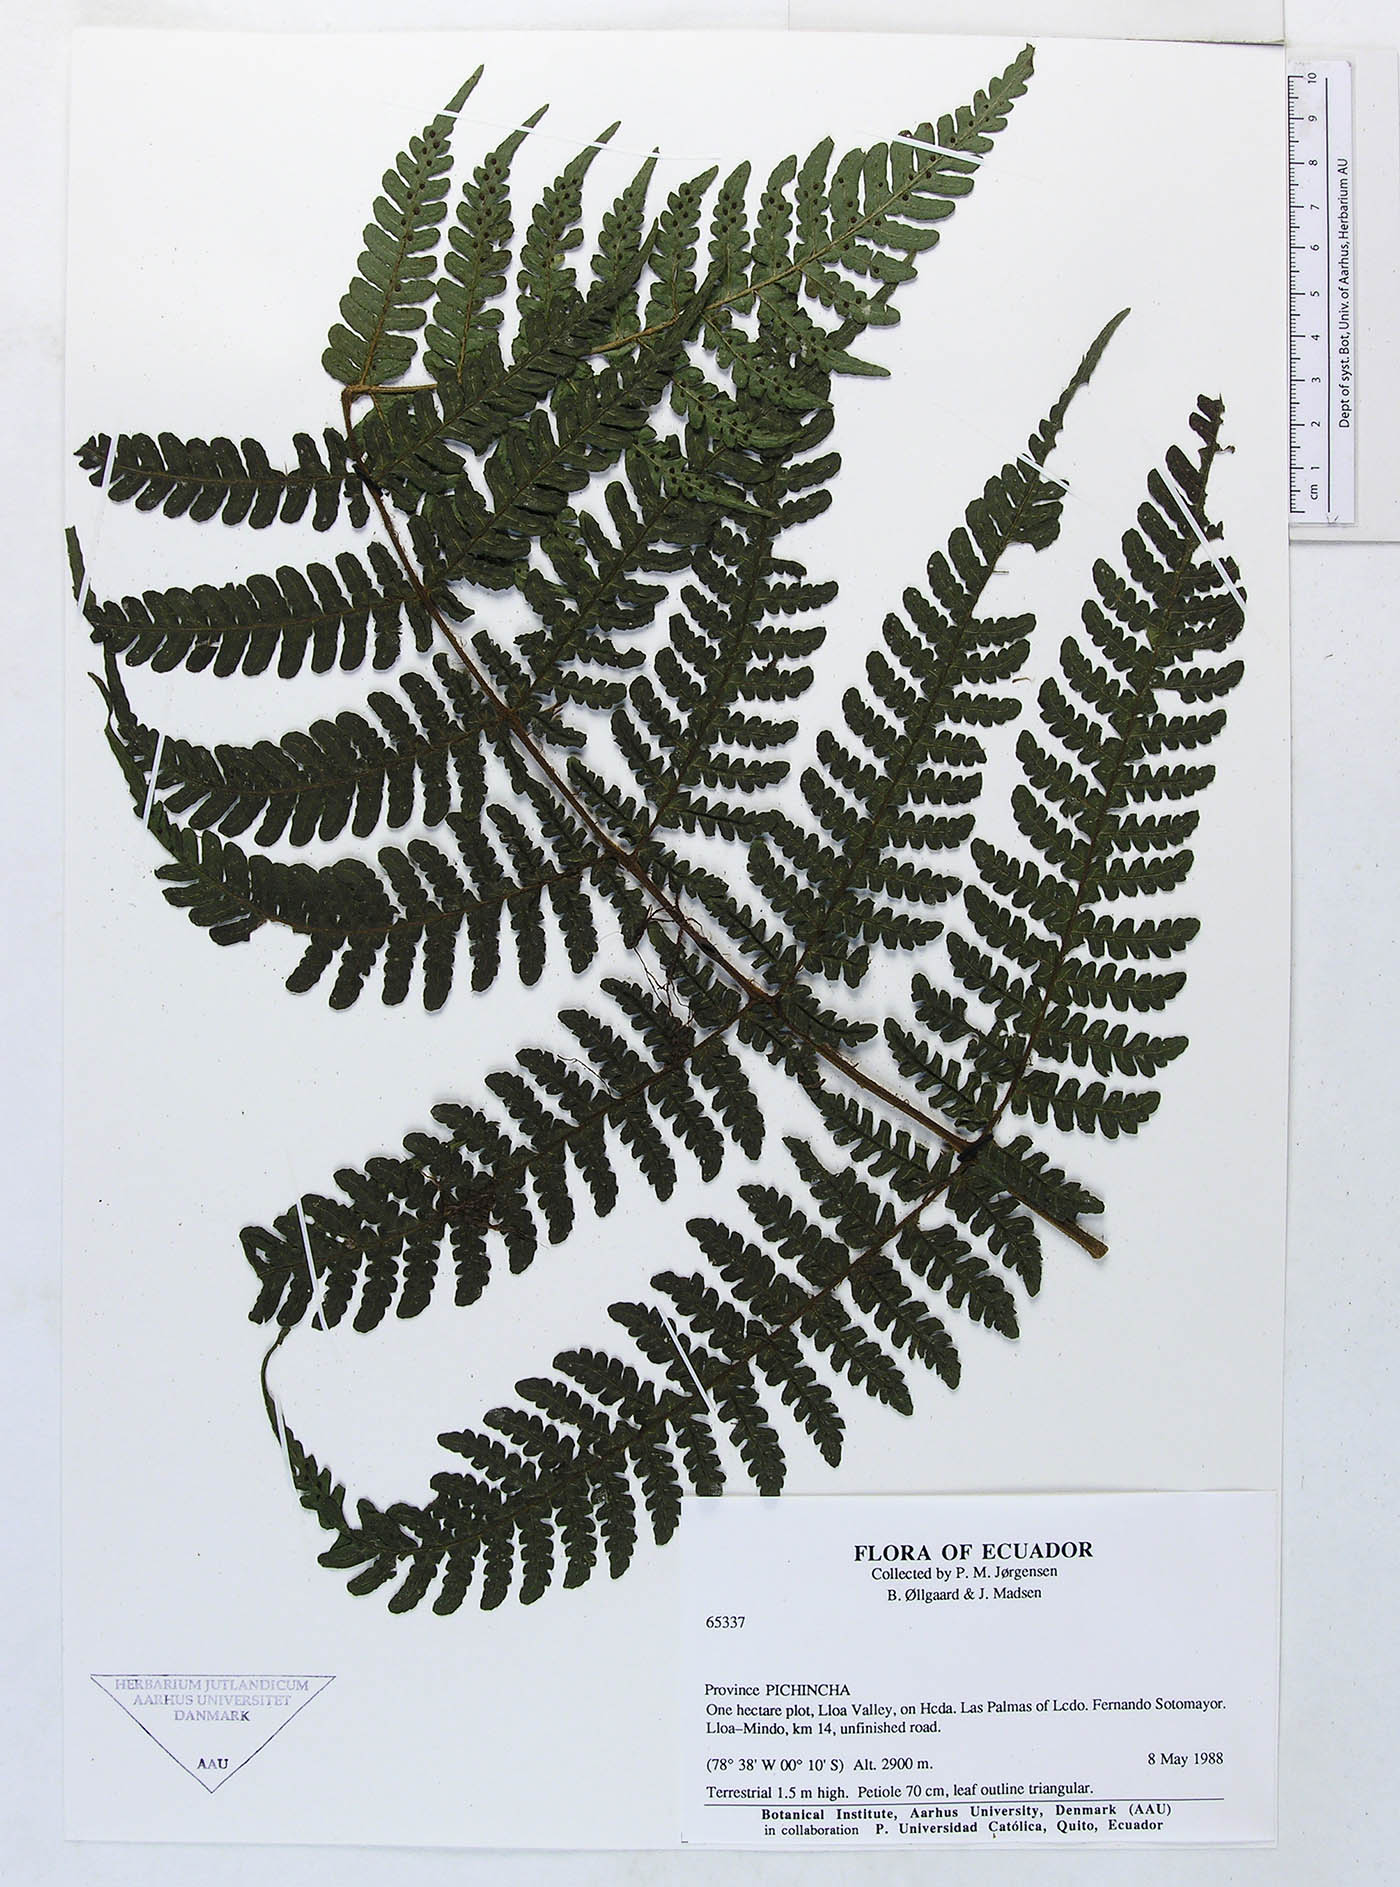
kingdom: Plantae
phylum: Tracheophyta
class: Polypodiopsida
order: Polypodiales
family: Dryopteridaceae
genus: Megalastrum
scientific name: Megalastrum falcatum
